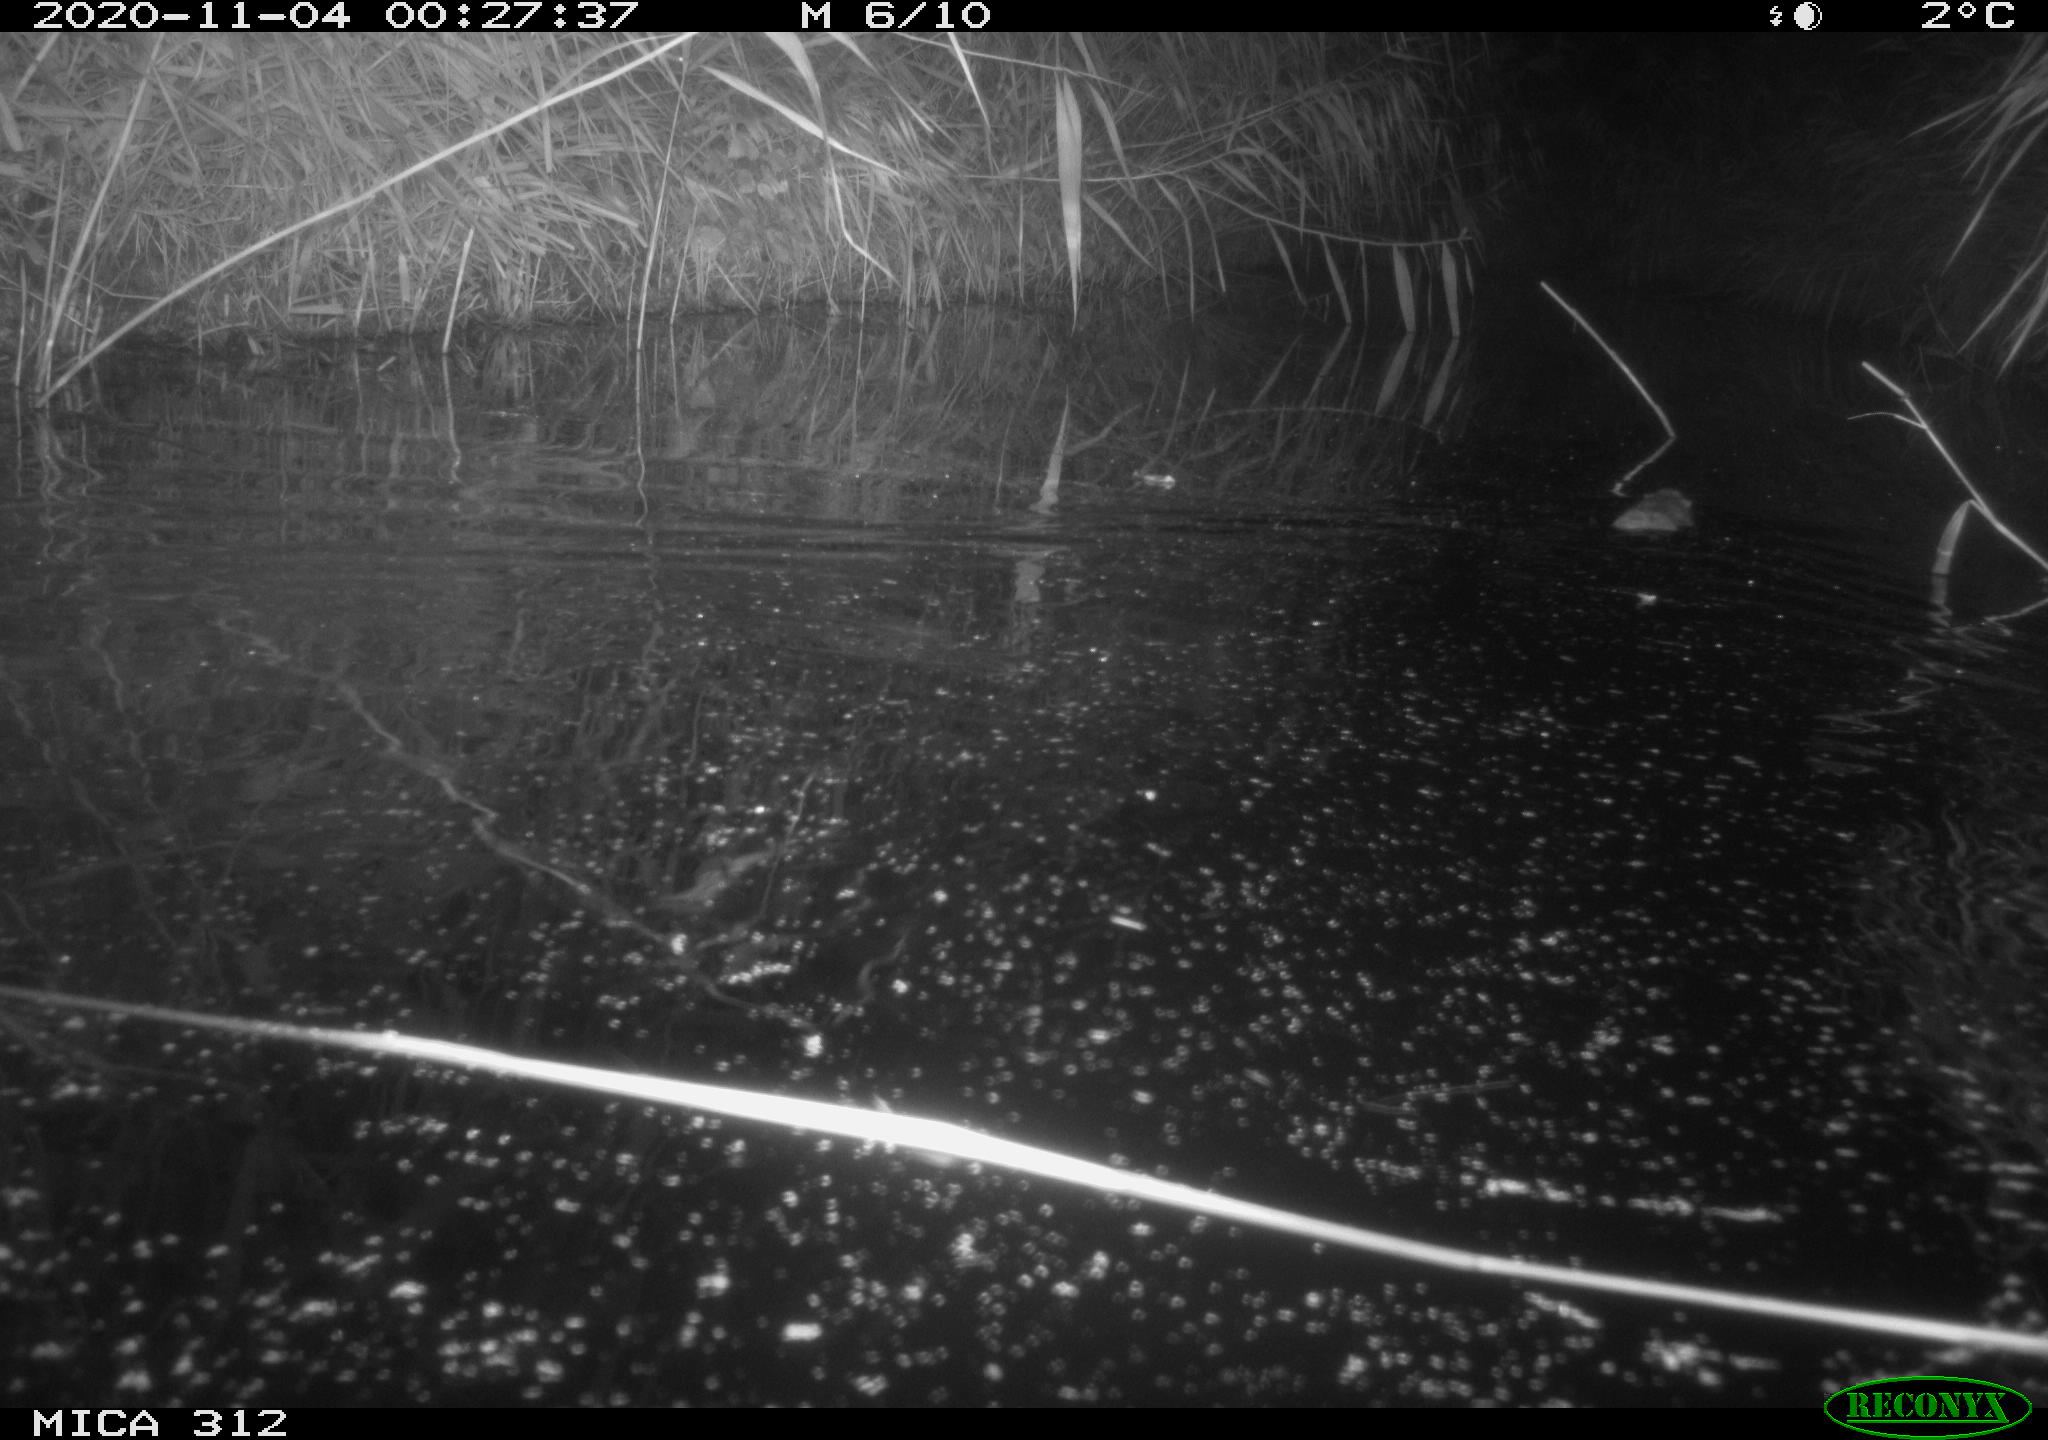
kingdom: Animalia
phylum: Chordata
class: Mammalia
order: Rodentia
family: Cricetidae
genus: Ondatra
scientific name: Ondatra zibethicus
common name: Muskrat
